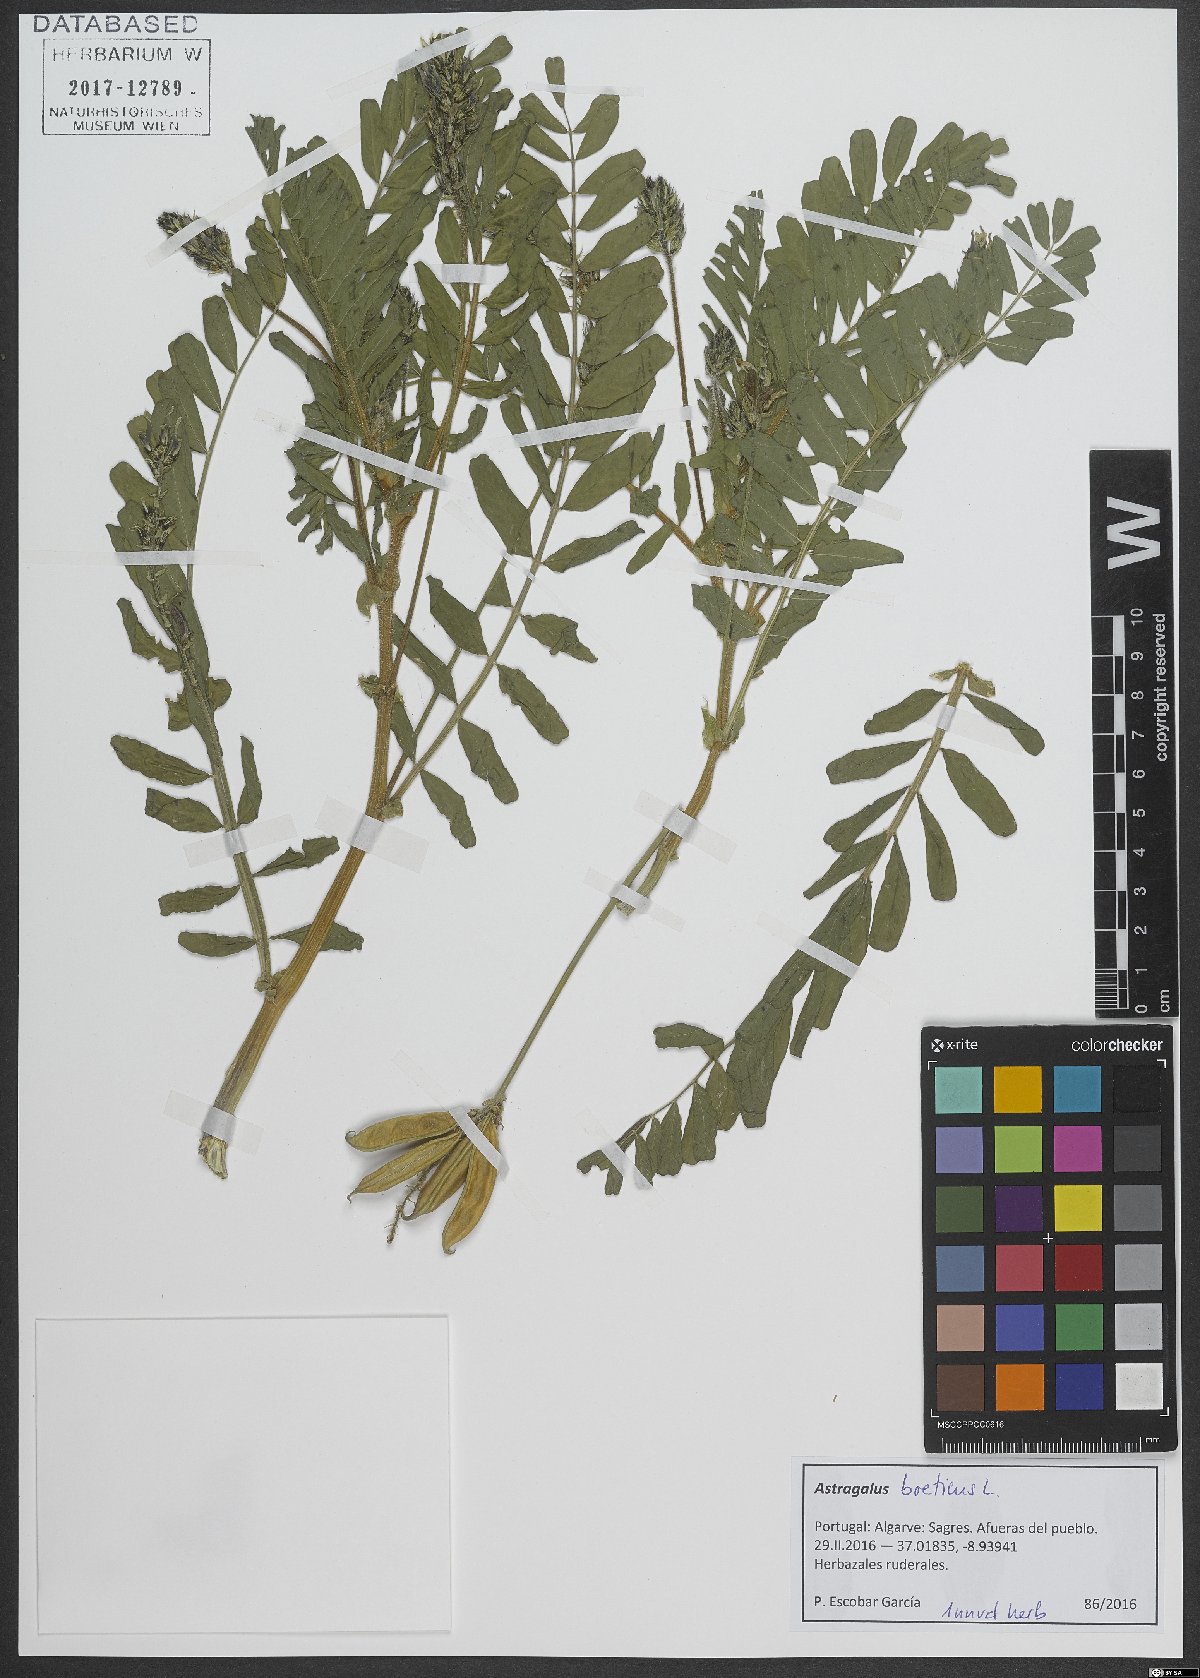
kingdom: Plantae
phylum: Tracheophyta
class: Magnoliopsida
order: Fabales
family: Fabaceae
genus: Astragalus
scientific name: Astragalus boeticus
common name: Milk-vetch
